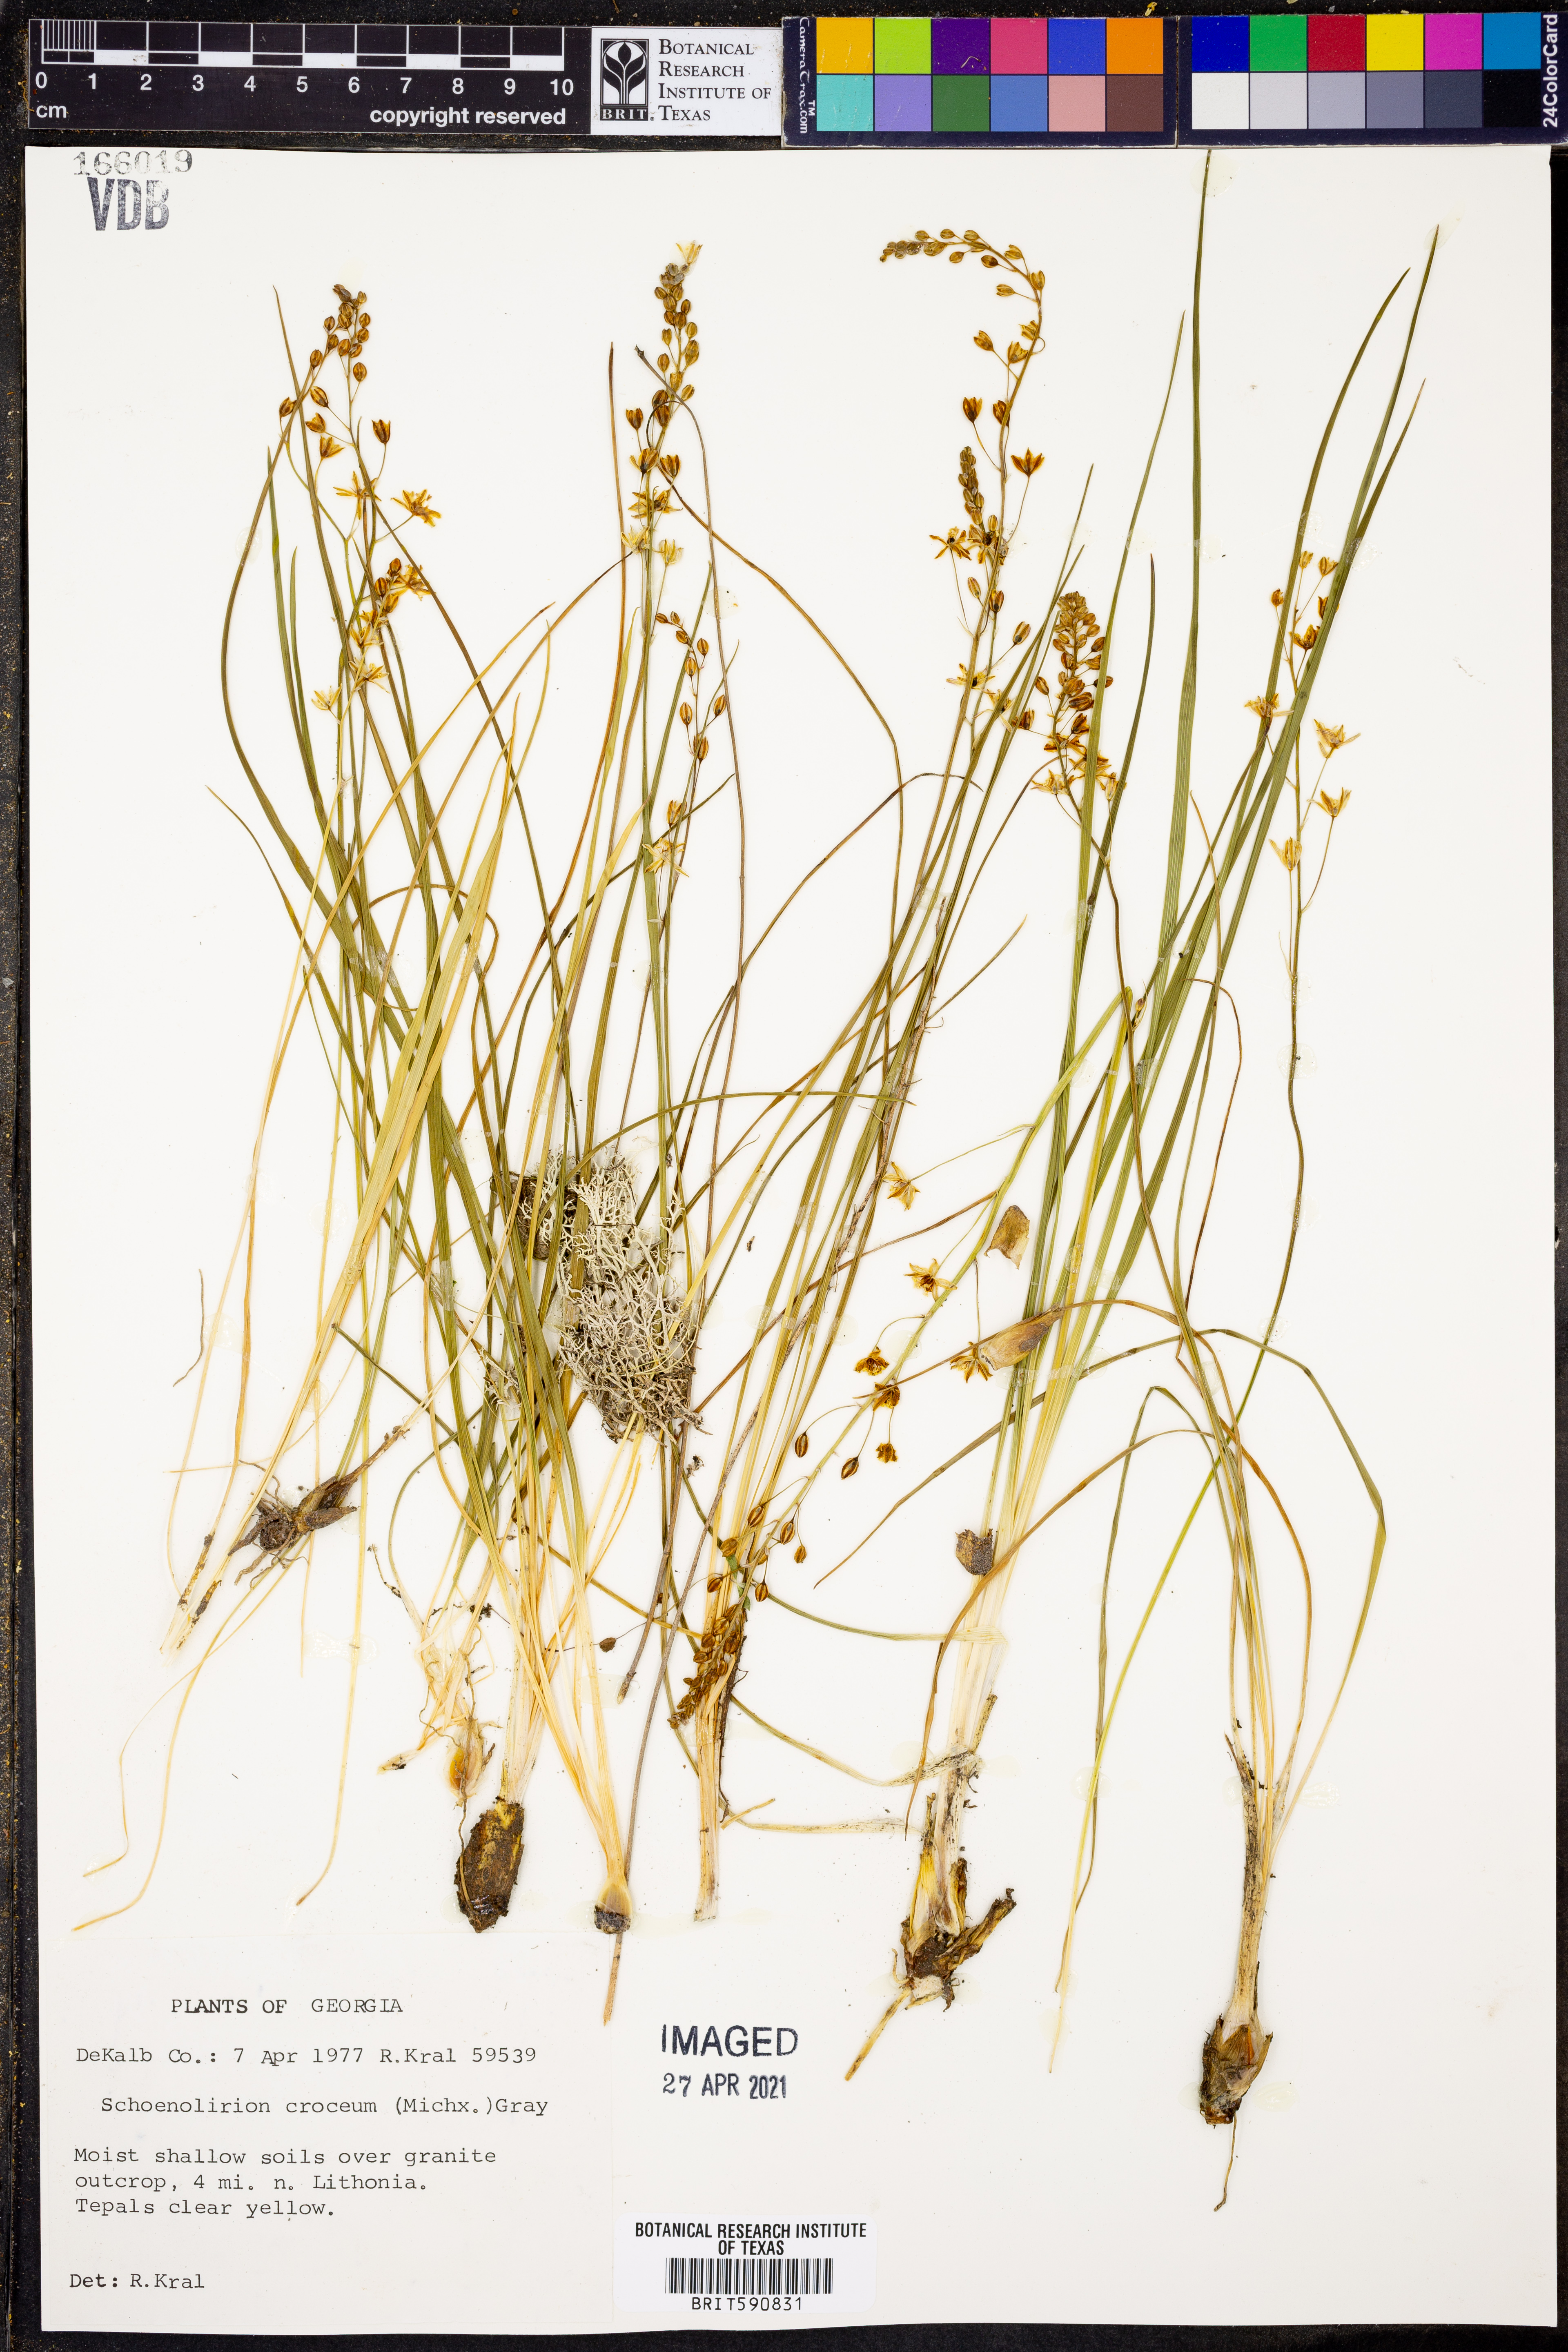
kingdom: Plantae
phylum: Tracheophyta
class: Liliopsida
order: Asparagales
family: Asparagaceae
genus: Schoenolirion
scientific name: Schoenolirion croceum
